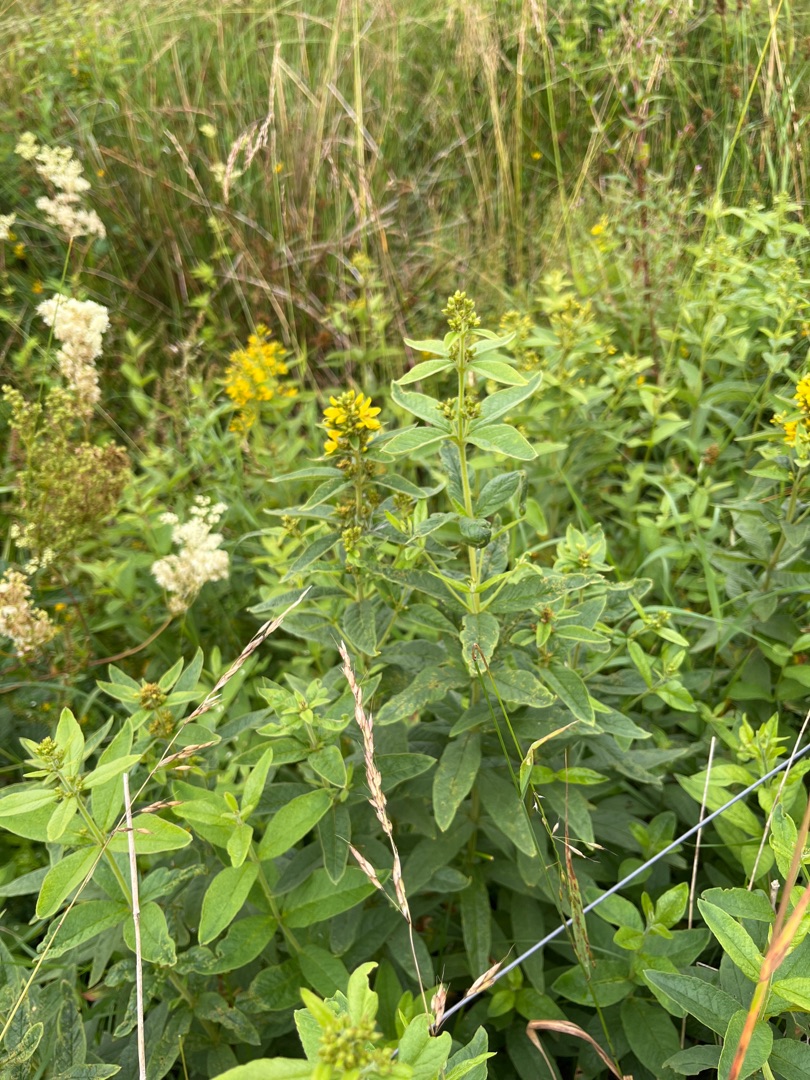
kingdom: Plantae
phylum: Tracheophyta
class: Magnoliopsida
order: Ericales
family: Primulaceae
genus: Lysimachia
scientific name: Lysimachia vulgaris
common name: Almindelig fredløs
